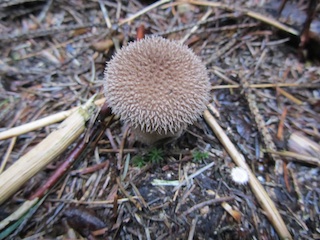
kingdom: Fungi
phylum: Basidiomycota
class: Agaricomycetes
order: Agaricales
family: Lycoperdaceae
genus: Lycoperdon
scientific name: Lycoperdon nigrescens
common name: sortagtig støvbold
